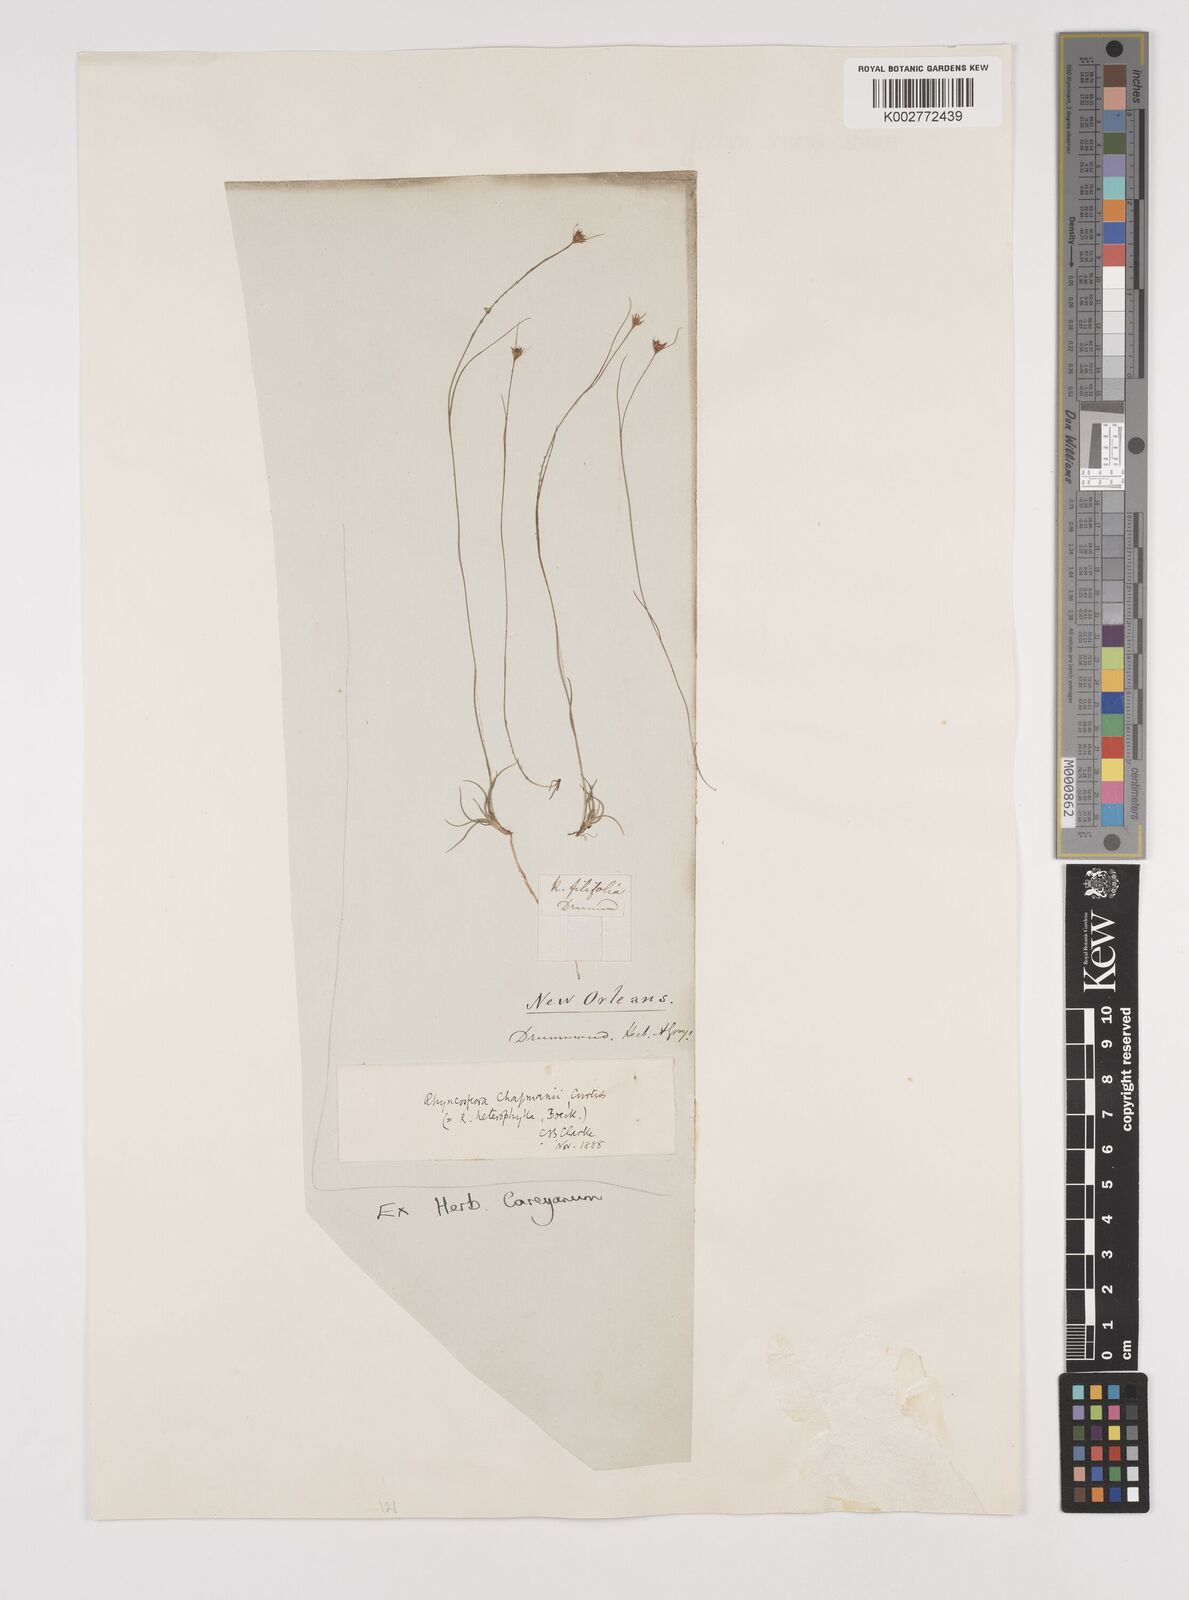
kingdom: Plantae
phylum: Tracheophyta
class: Liliopsida
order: Poales
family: Cyperaceae
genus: Rhynchospora
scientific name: Rhynchospora
